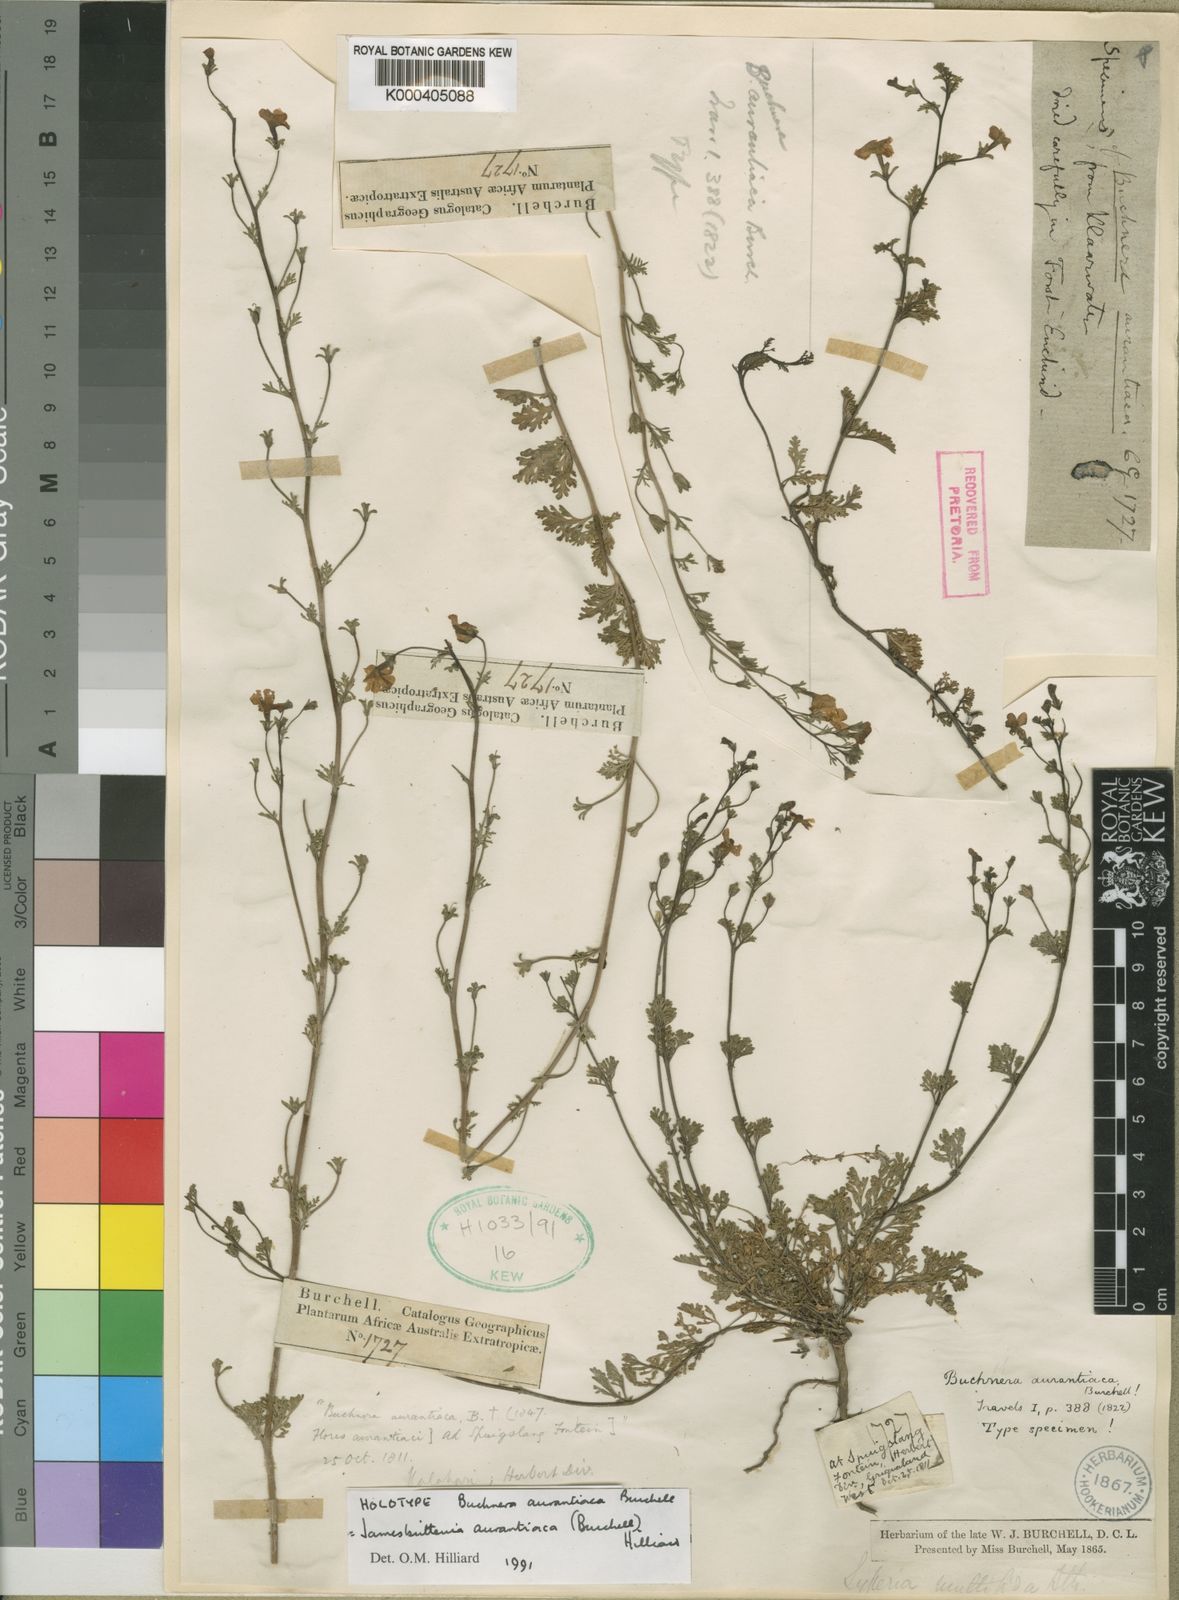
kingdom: Plantae
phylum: Tracheophyta
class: Magnoliopsida
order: Lamiales
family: Scrophulariaceae
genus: Jamesbrittenia
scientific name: Jamesbrittenia aurantiaca
